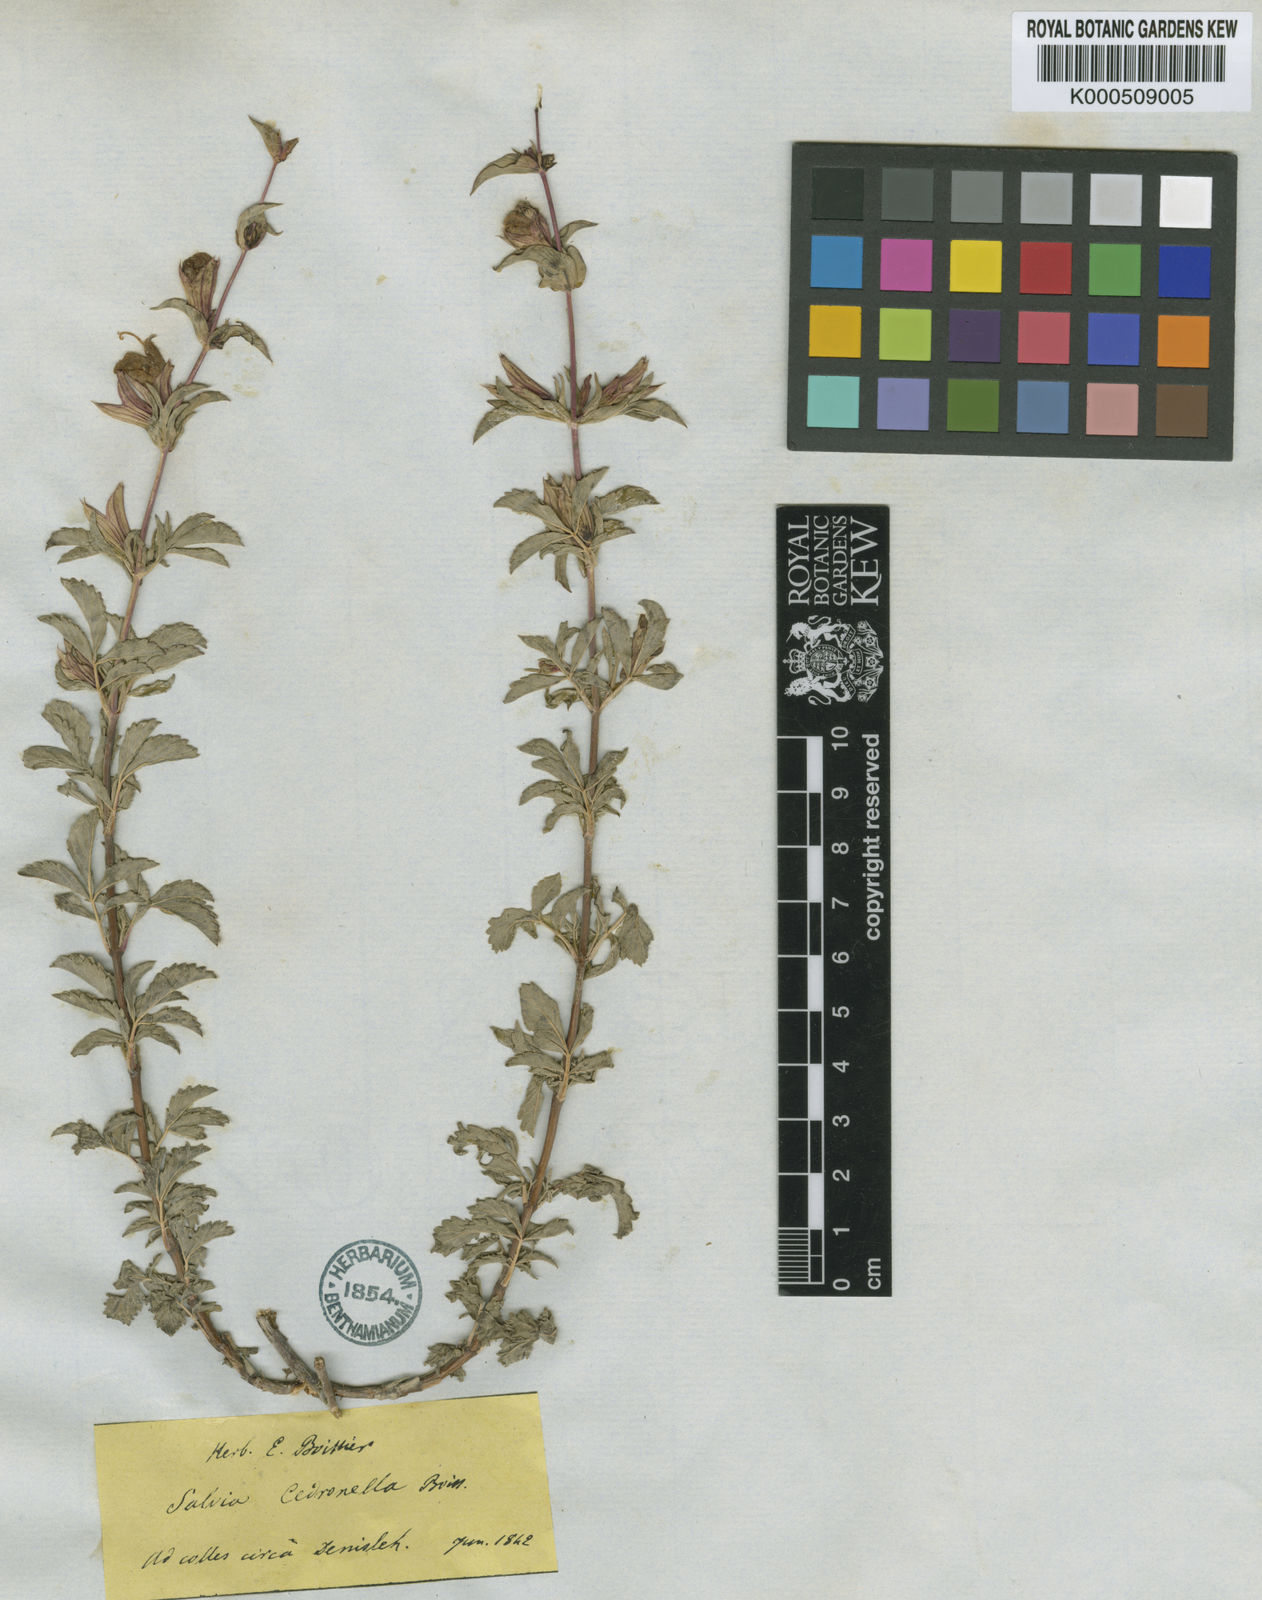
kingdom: Plantae
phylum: Tracheophyta
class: Magnoliopsida
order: Lamiales
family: Lamiaceae
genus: Salvia
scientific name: Salvia cedronella
